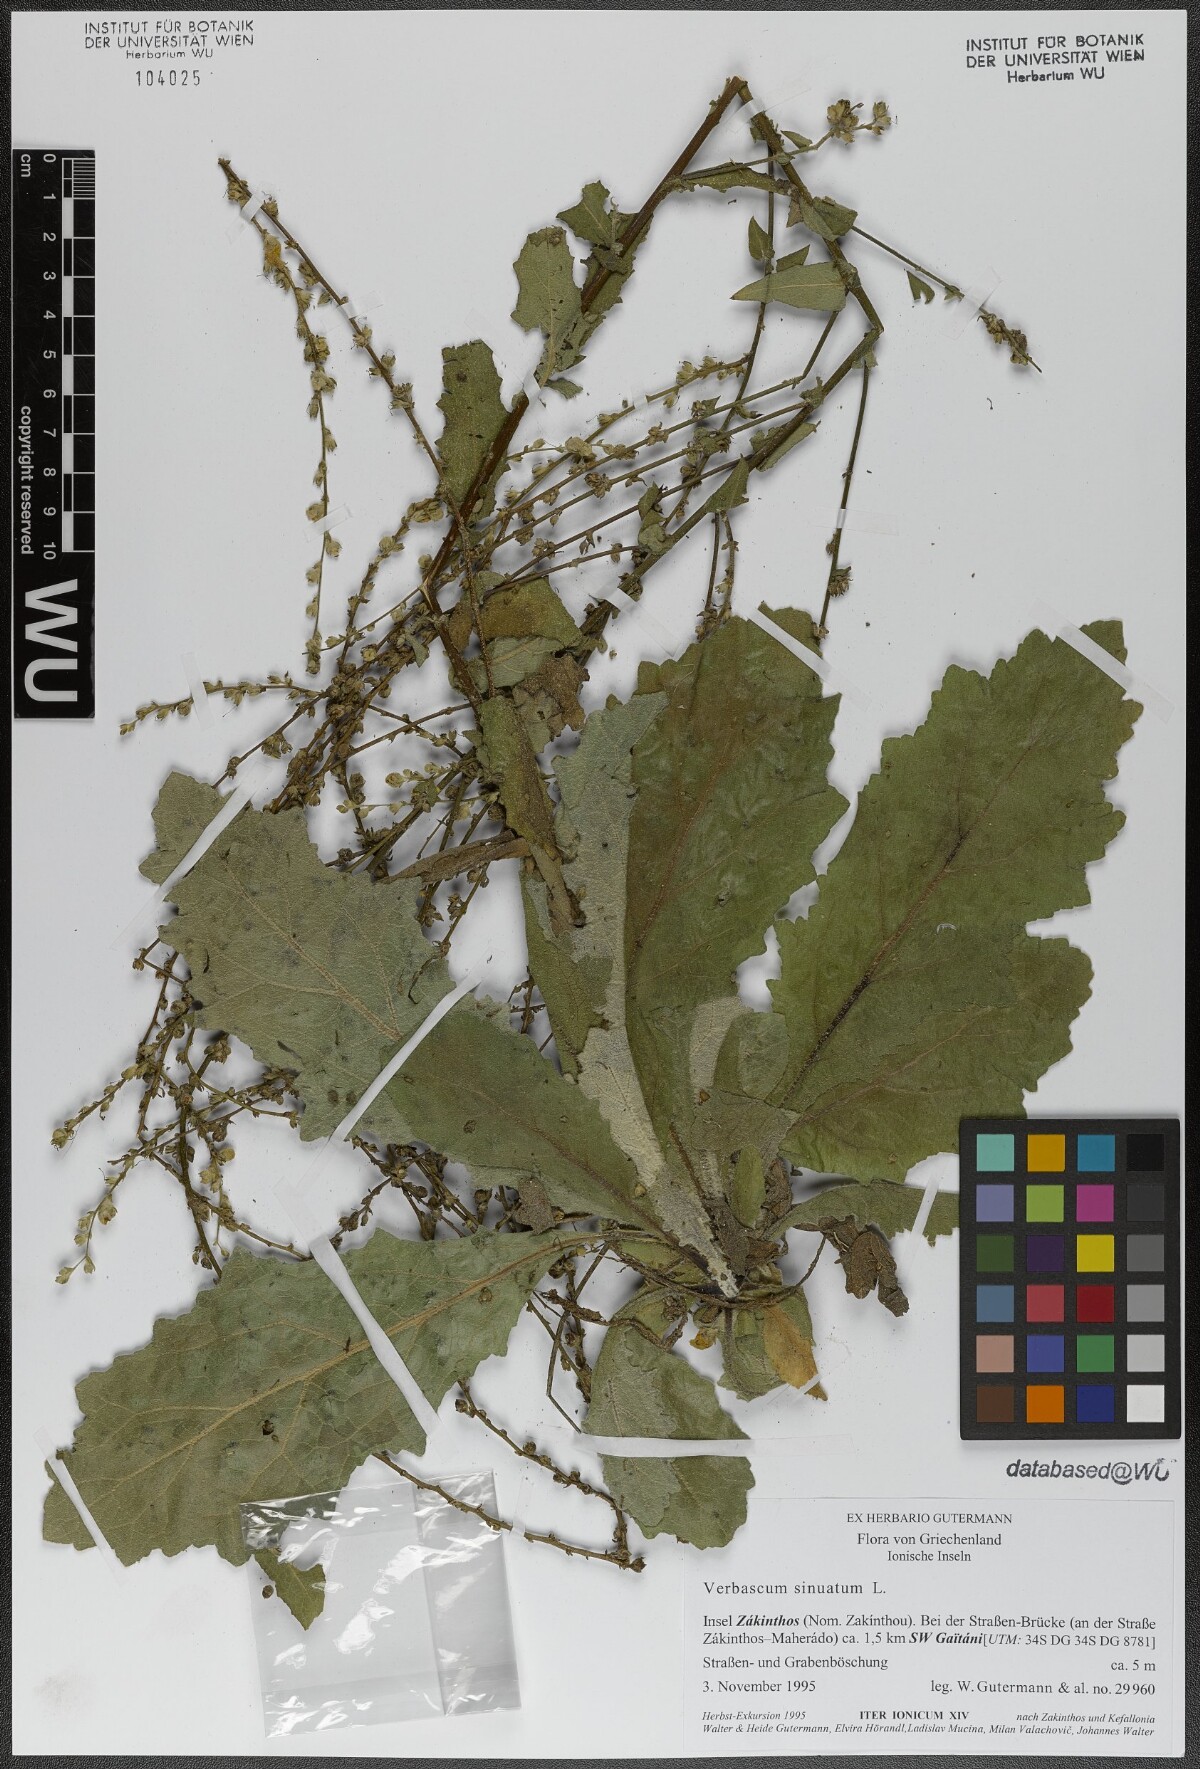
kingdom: Plantae
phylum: Tracheophyta
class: Magnoliopsida
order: Lamiales
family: Scrophulariaceae
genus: Verbascum
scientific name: Verbascum sinuatum
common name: Wavyleaf mullein
